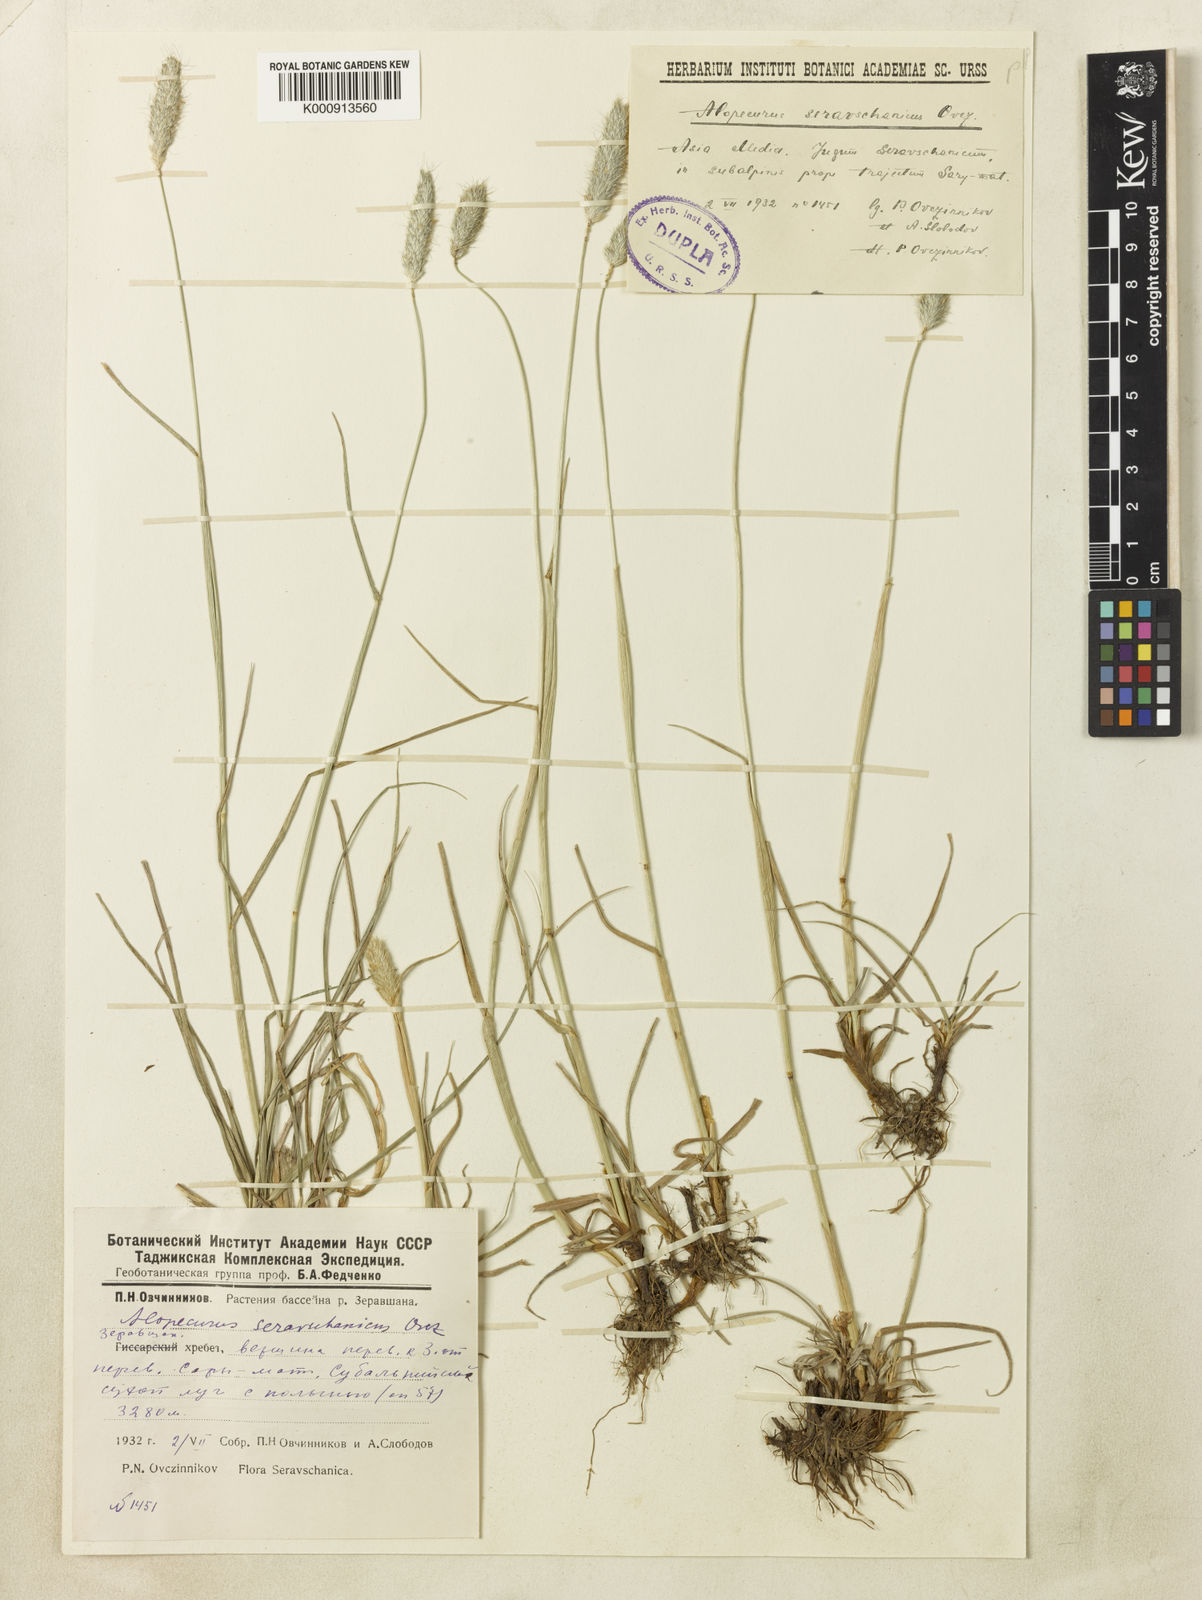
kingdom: Plantae
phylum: Tracheophyta
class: Liliopsida
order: Poales
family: Poaceae
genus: Alopecurus
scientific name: Alopecurus pratensis
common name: Meadow foxtail
